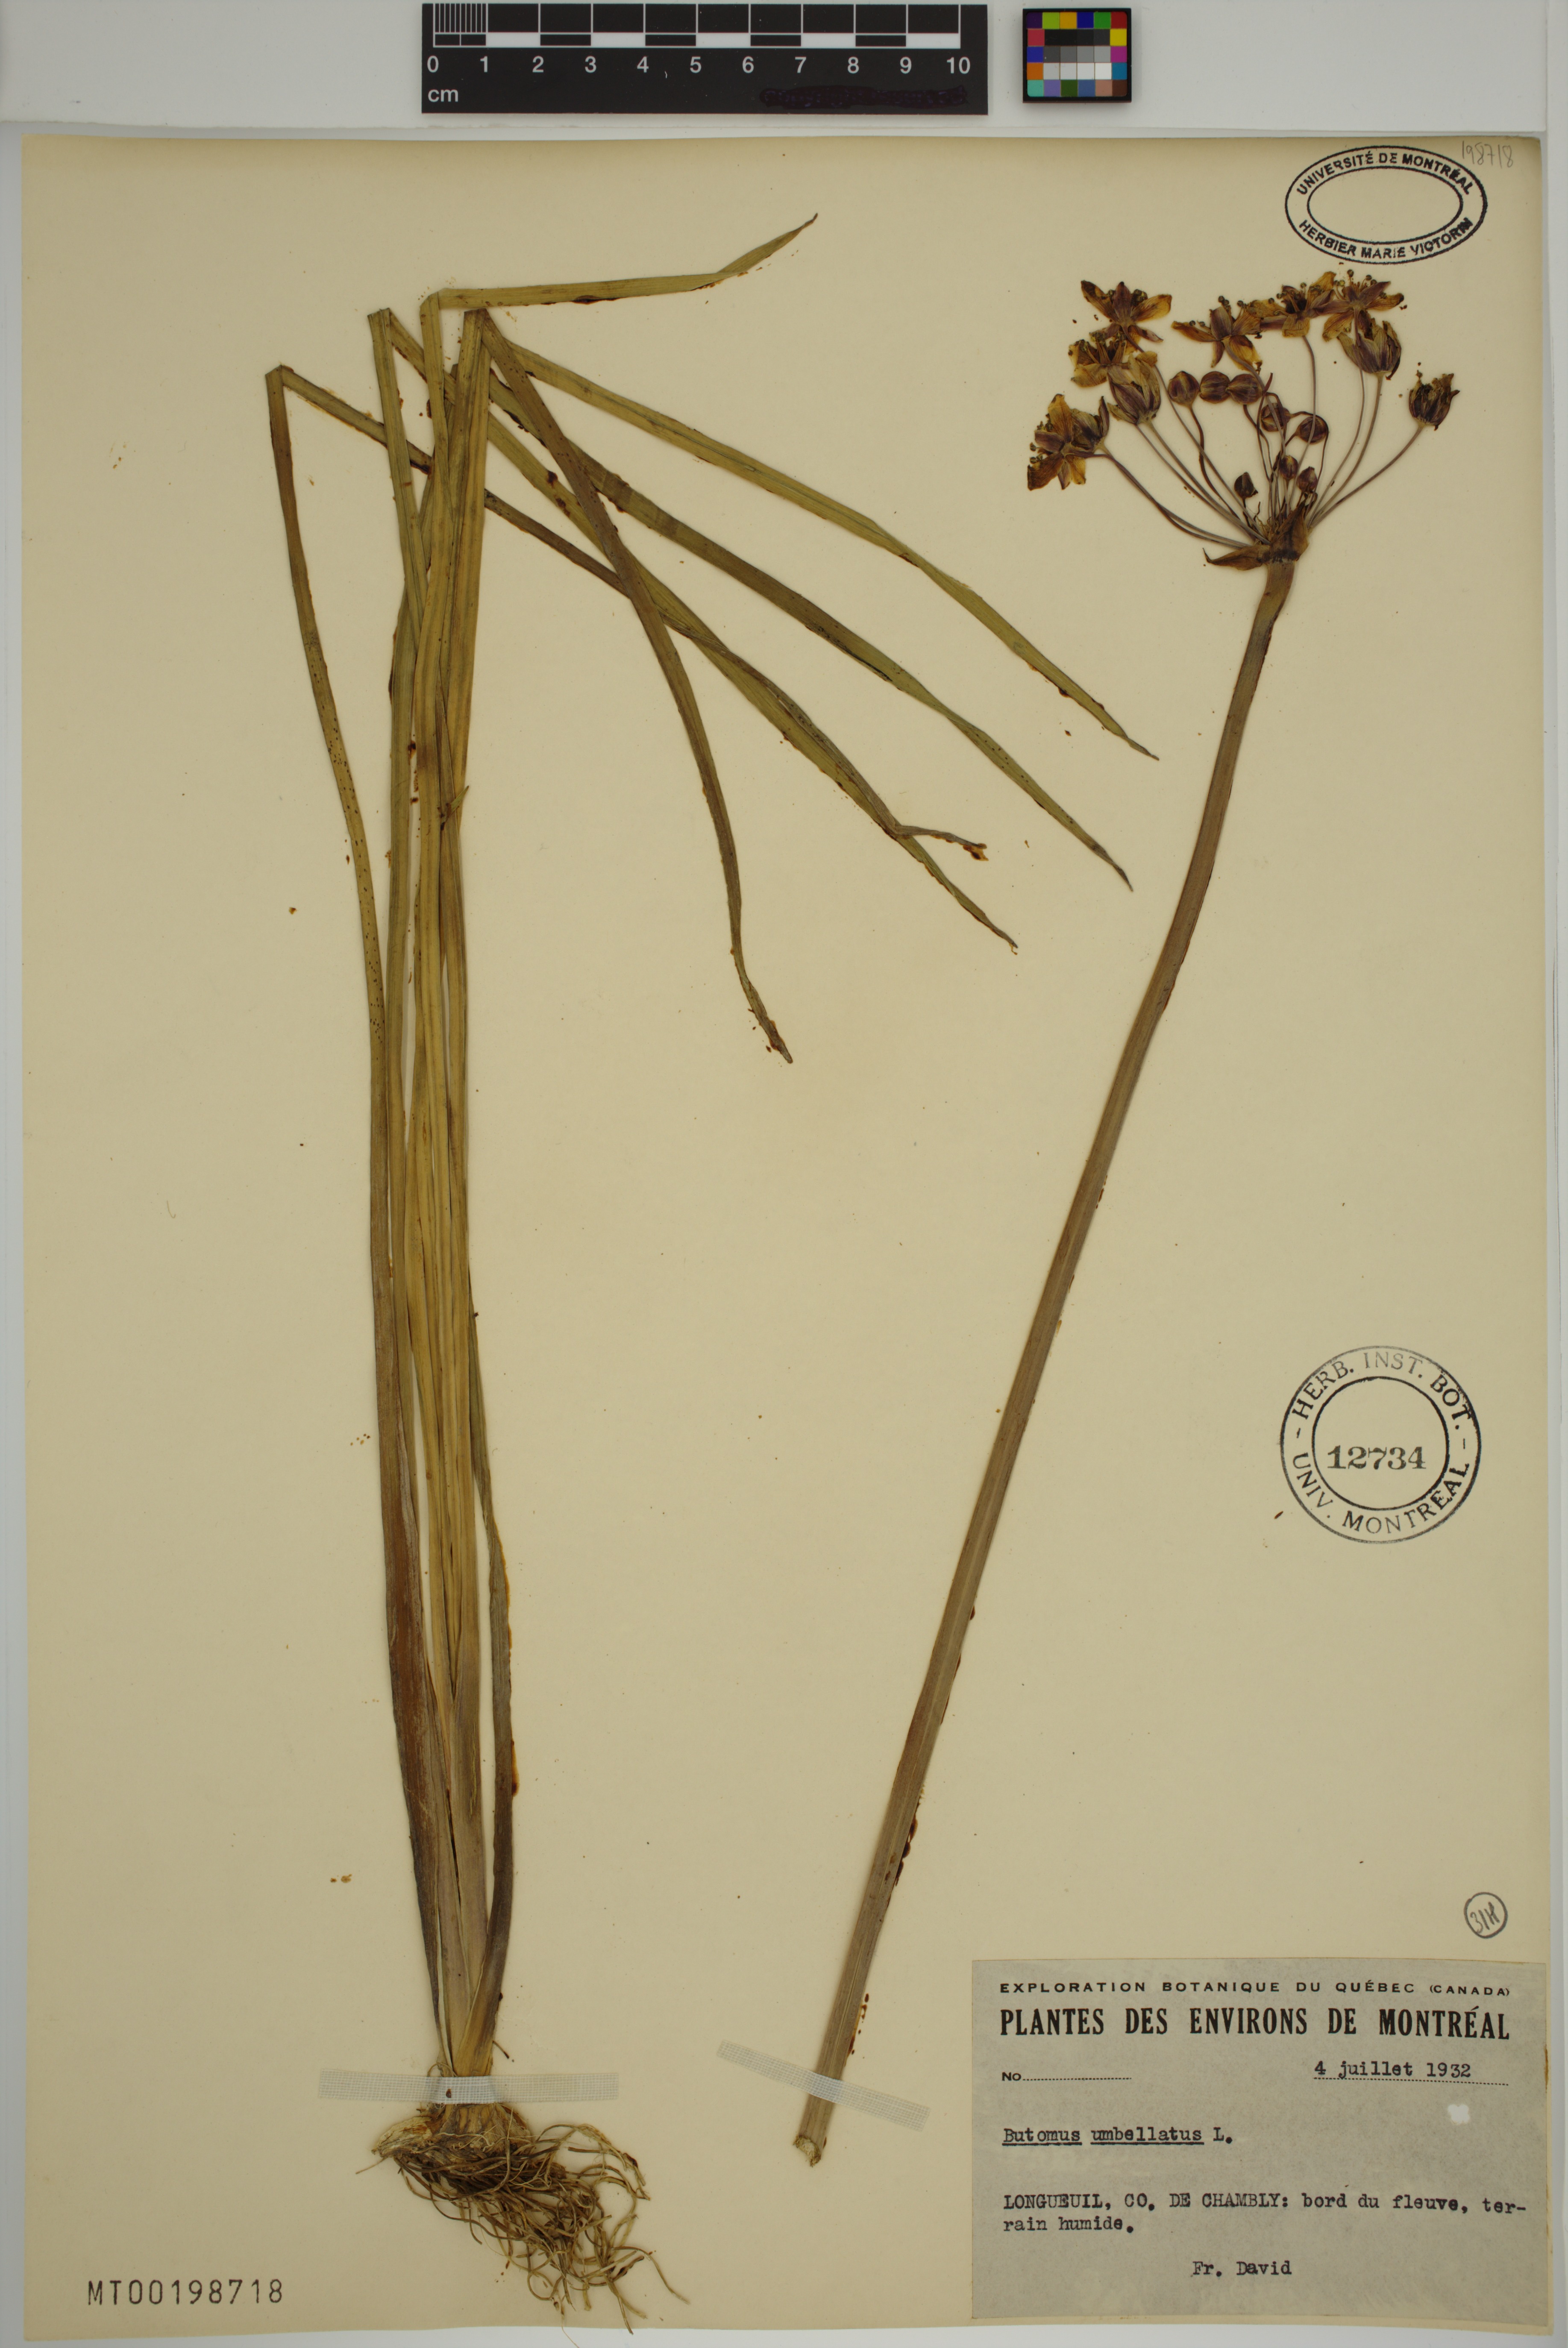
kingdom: Plantae
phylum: Tracheophyta
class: Liliopsida
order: Alismatales
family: Butomaceae
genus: Butomus
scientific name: Butomus umbellatus
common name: Flowering-rush
